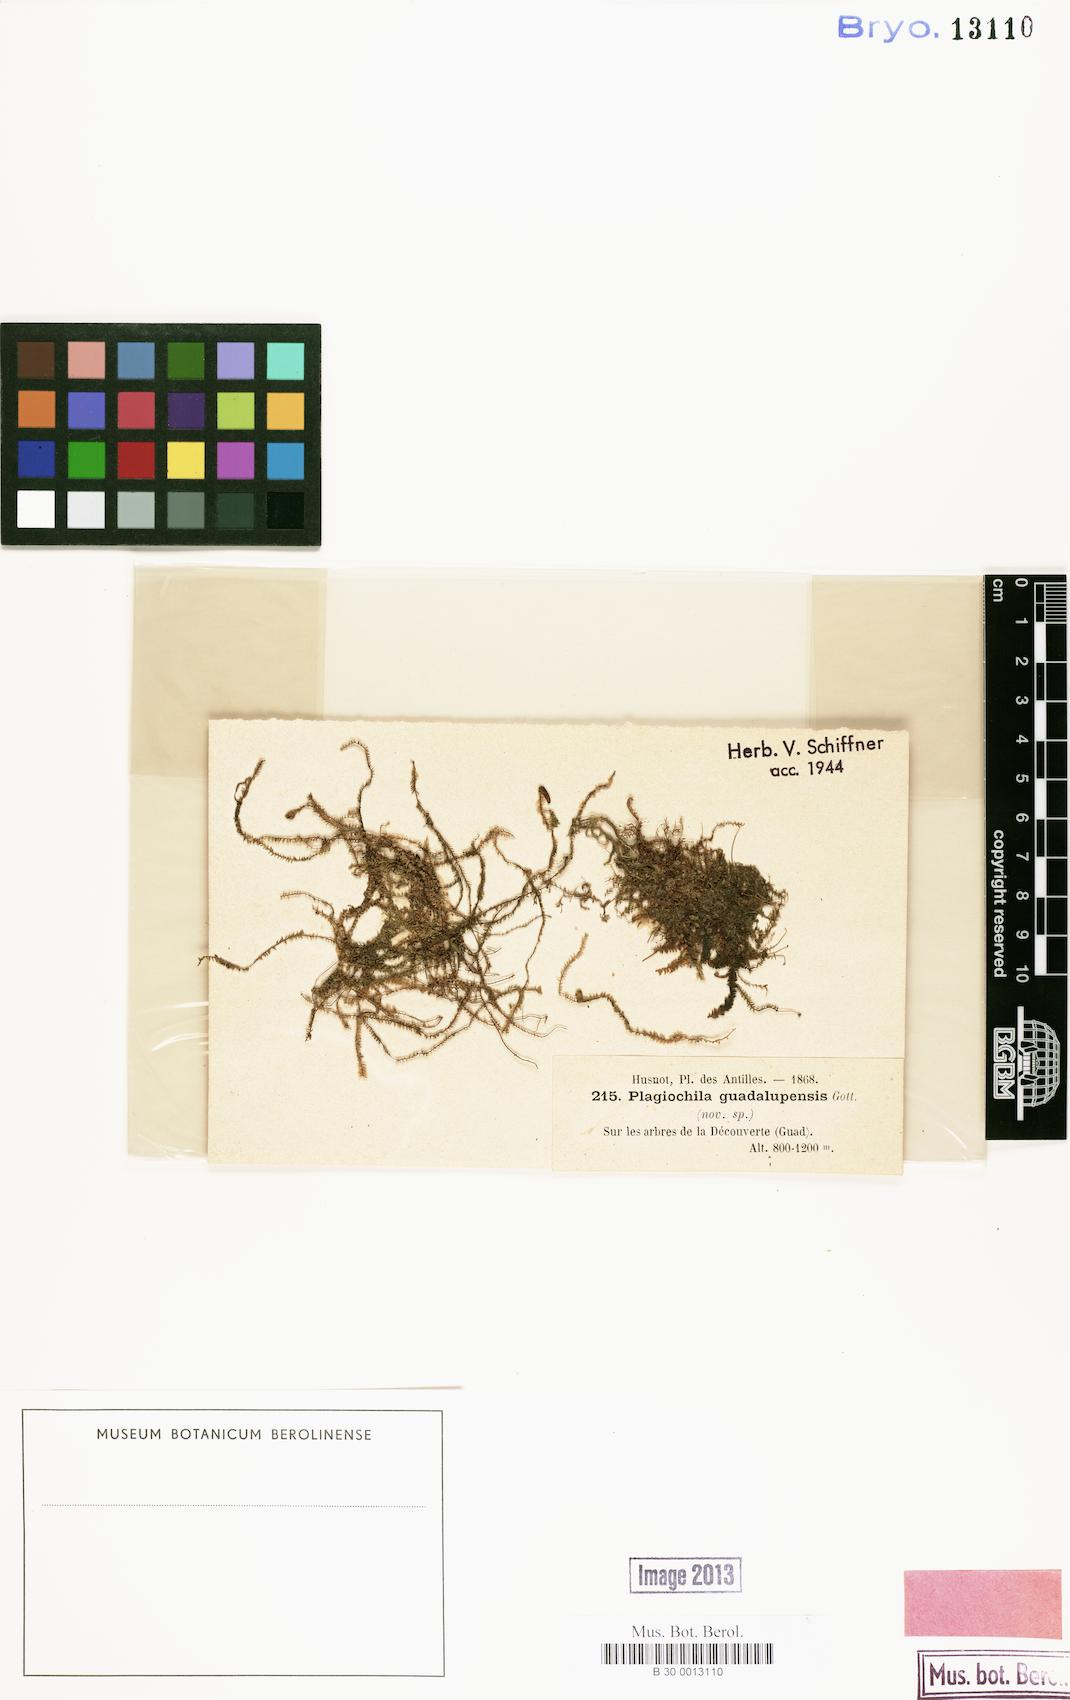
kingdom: Plantae
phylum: Marchantiophyta
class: Jungermanniopsida
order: Jungermanniales
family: Plagiochilaceae
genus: Plagiochila
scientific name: Plagiochila guadelupensis
